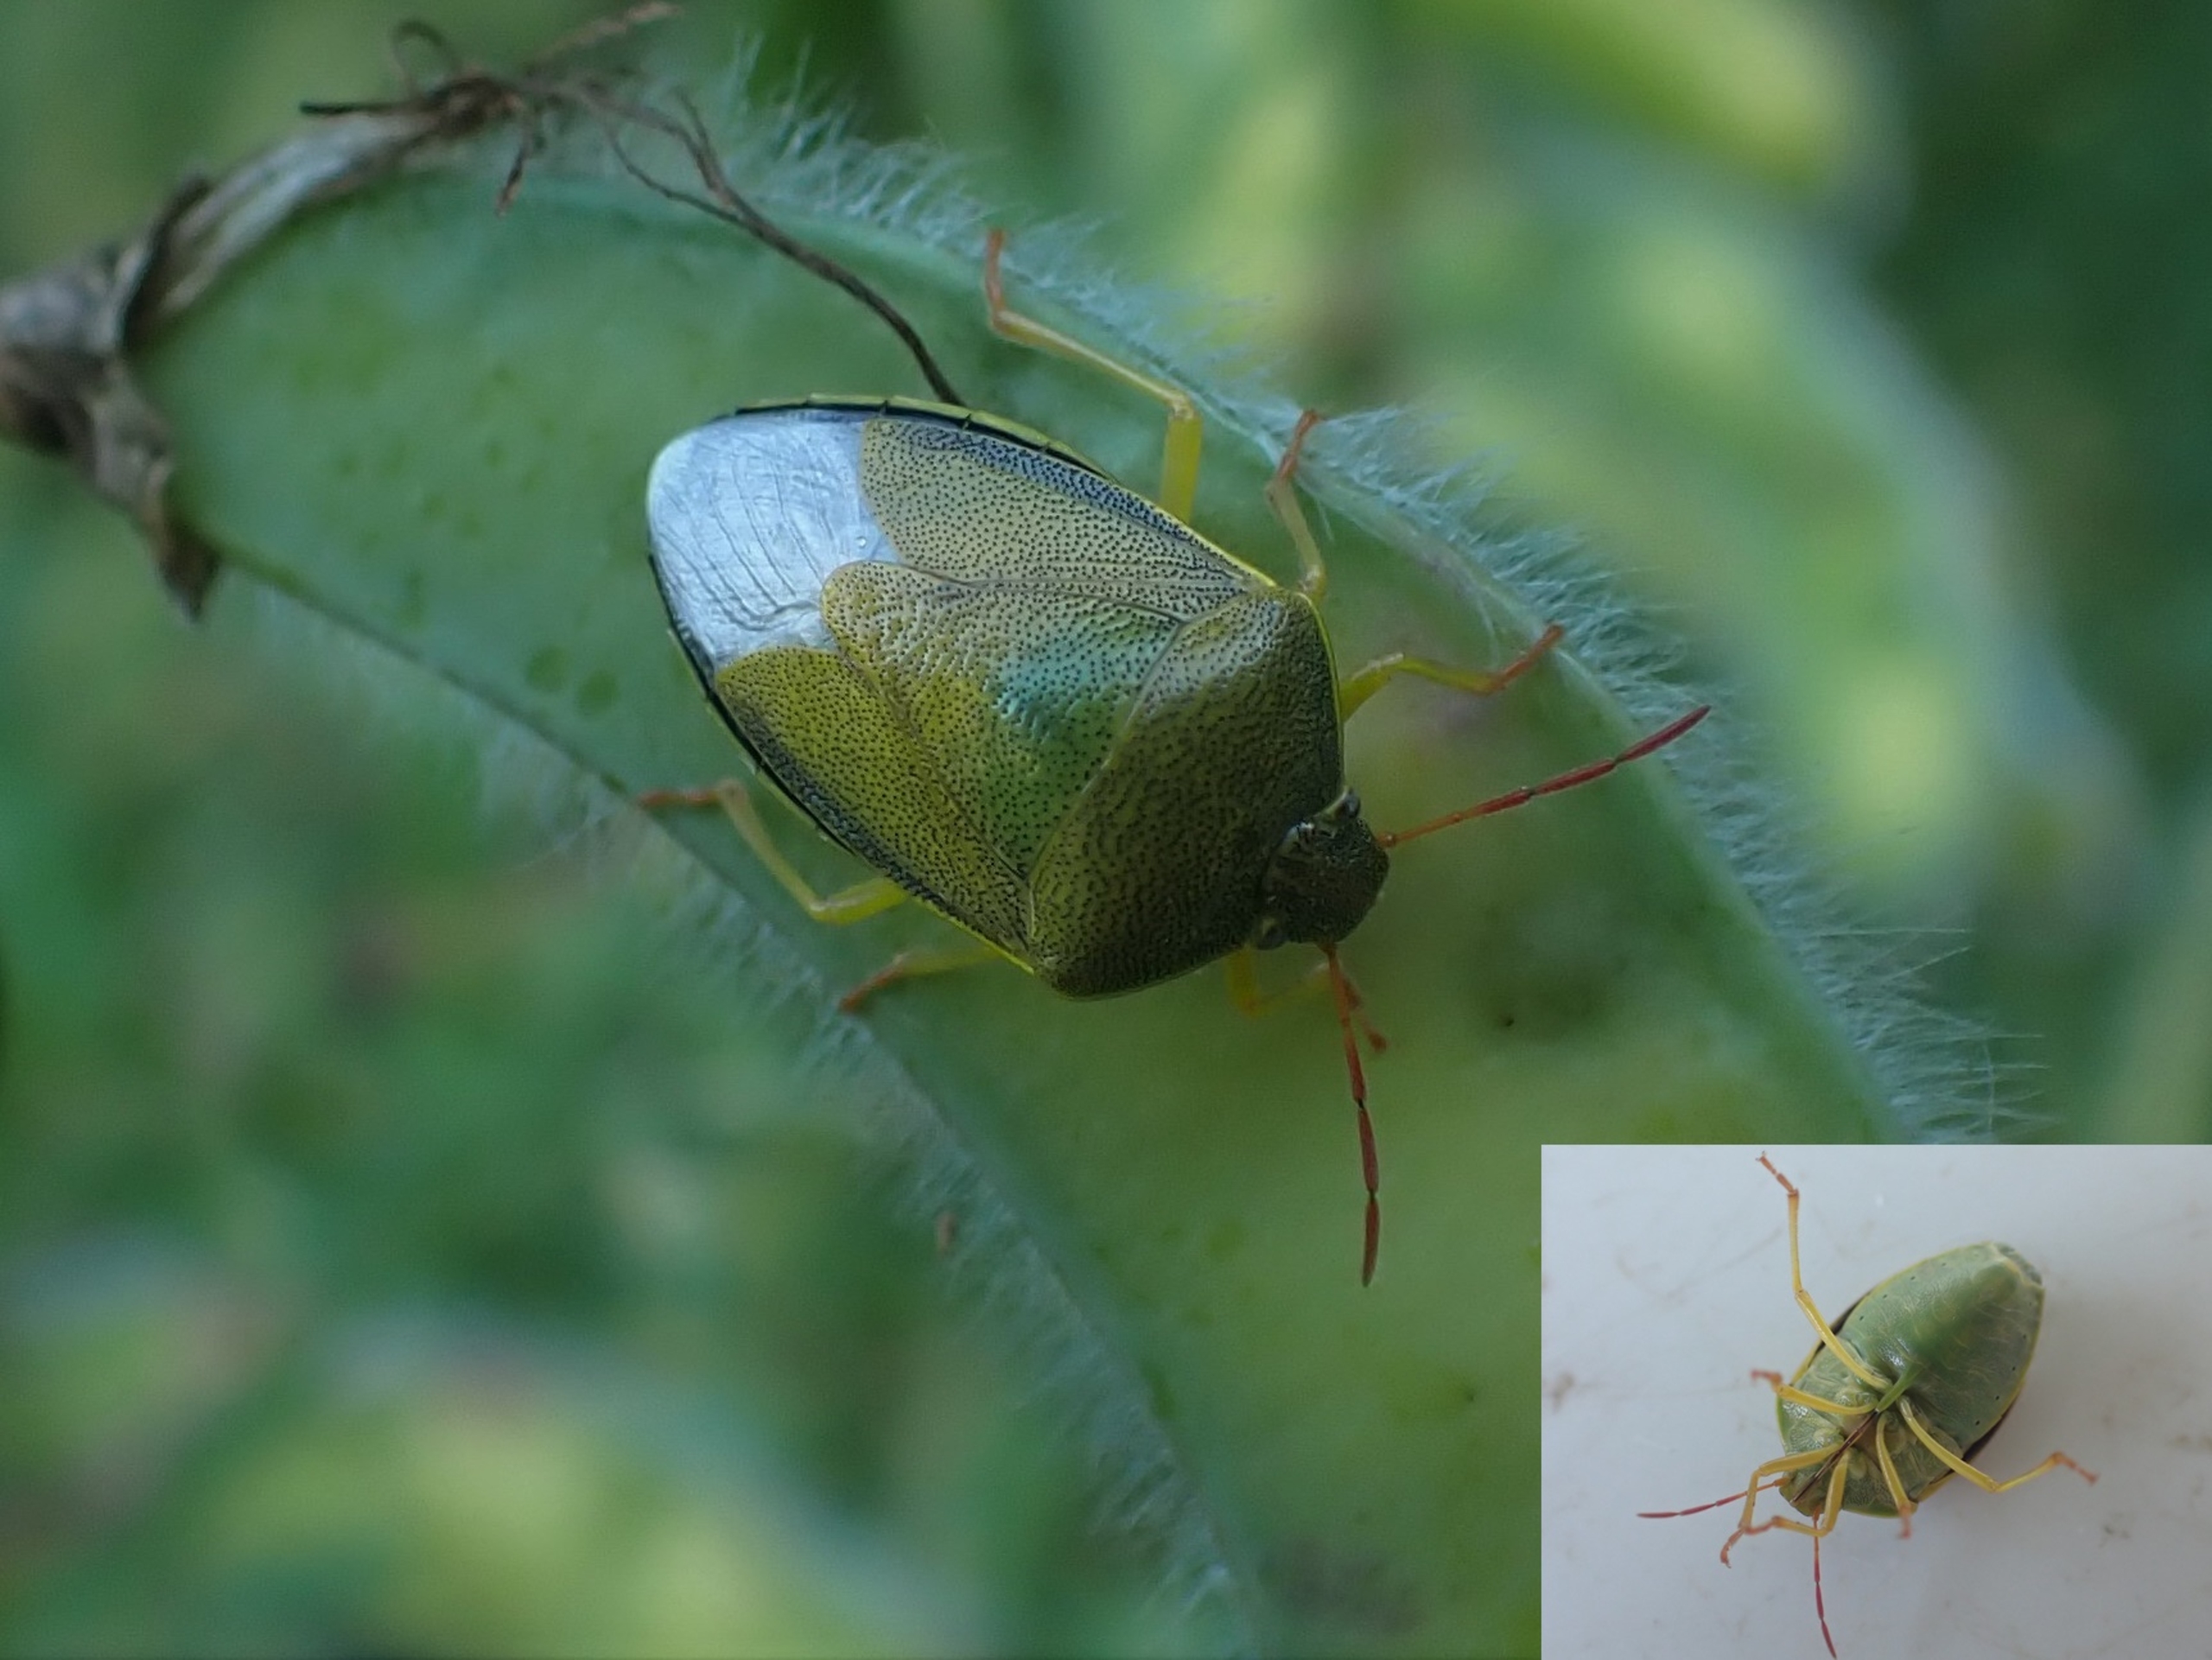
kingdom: Animalia
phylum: Arthropoda
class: Insecta
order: Hemiptera
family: Pentatomidae
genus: Piezodorus
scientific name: Piezodorus lituratus
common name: Gyvelbredtæge
